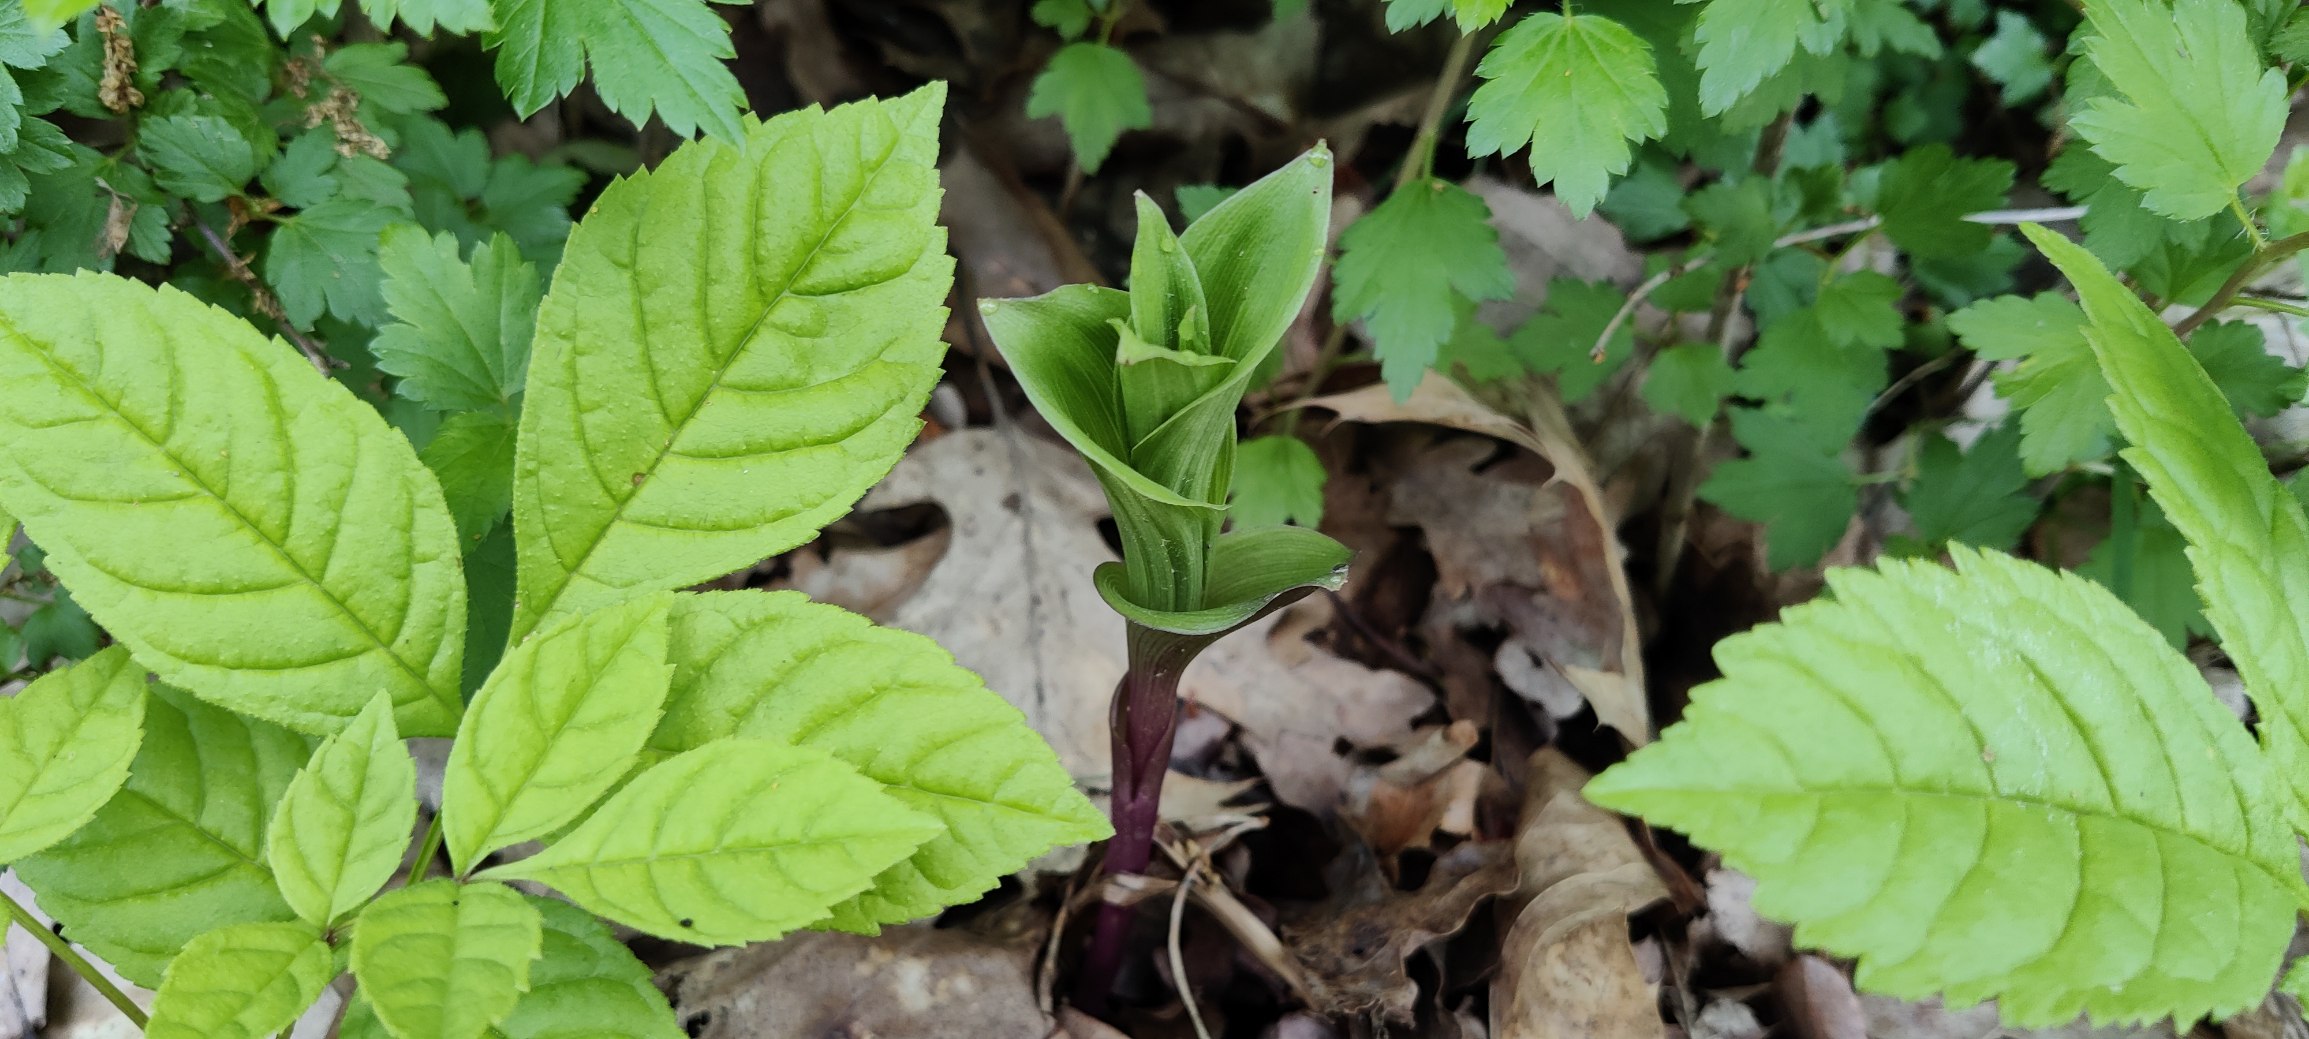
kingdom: Plantae
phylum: Tracheophyta
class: Liliopsida
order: Asparagales
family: Orchidaceae
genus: Epipactis
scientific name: Epipactis helleborine
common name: Skov-hullæbe
